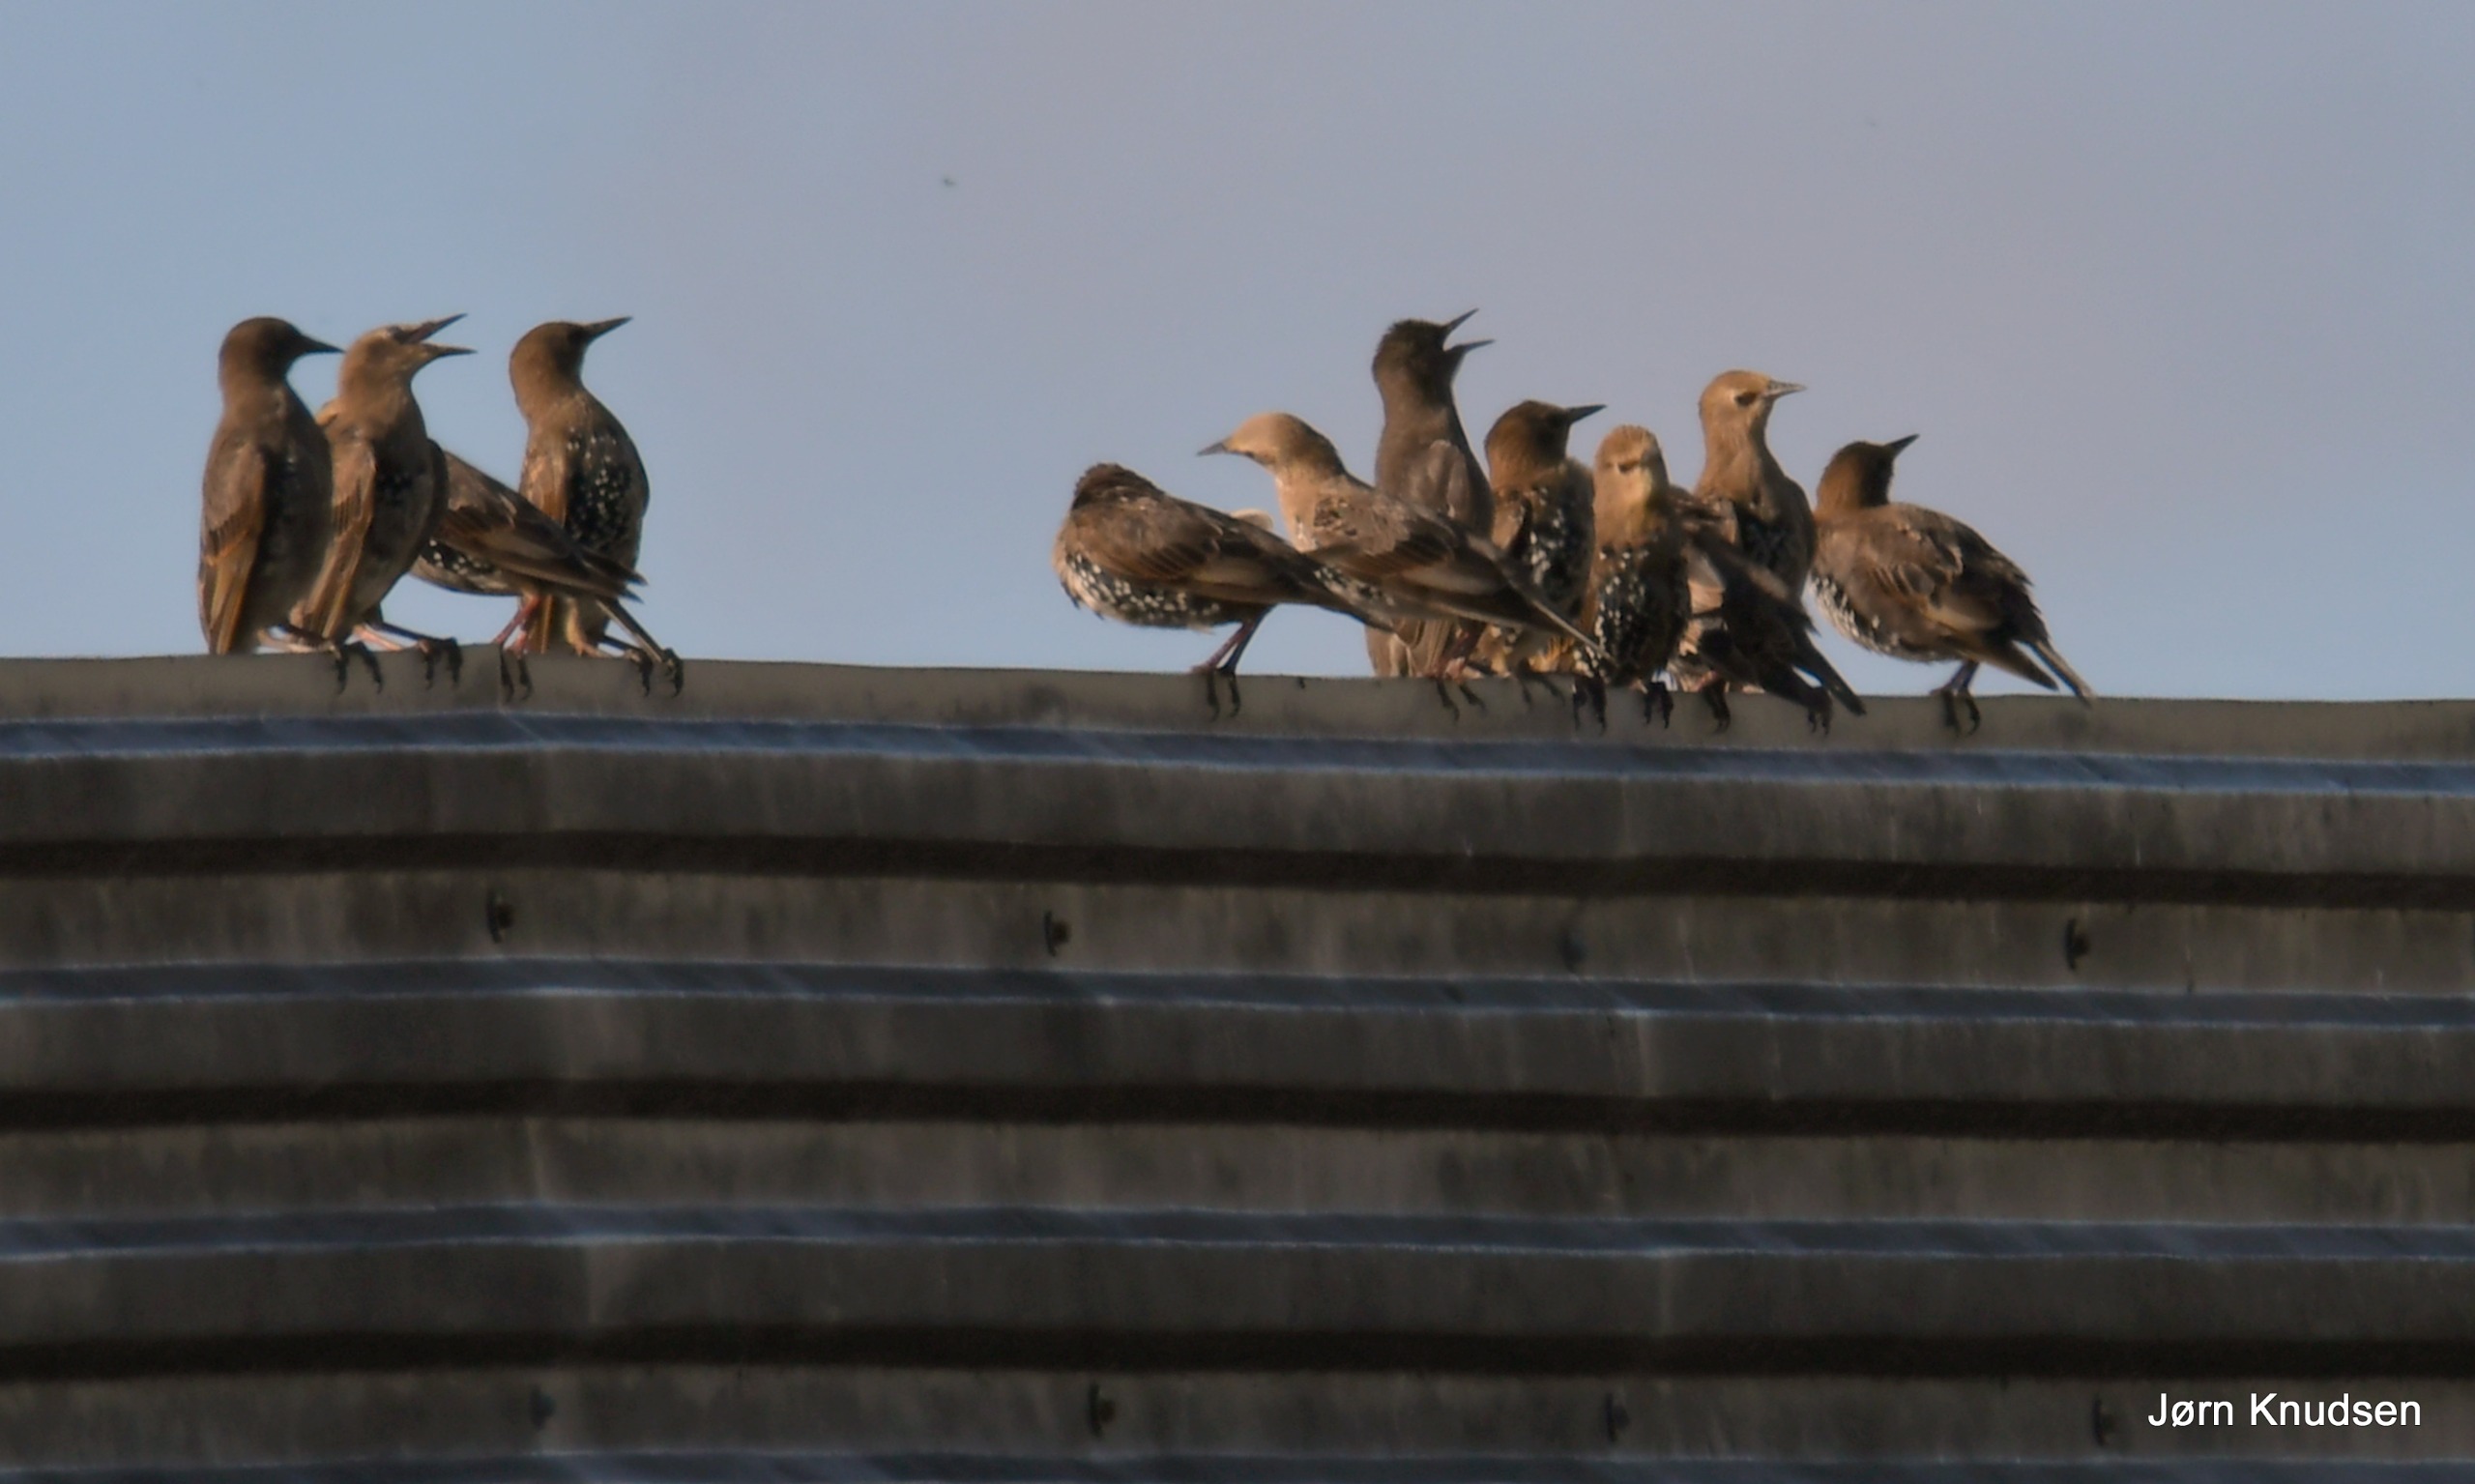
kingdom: Animalia
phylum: Chordata
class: Aves
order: Passeriformes
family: Sturnidae
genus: Sturnus
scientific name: Sturnus vulgaris
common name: Stær
